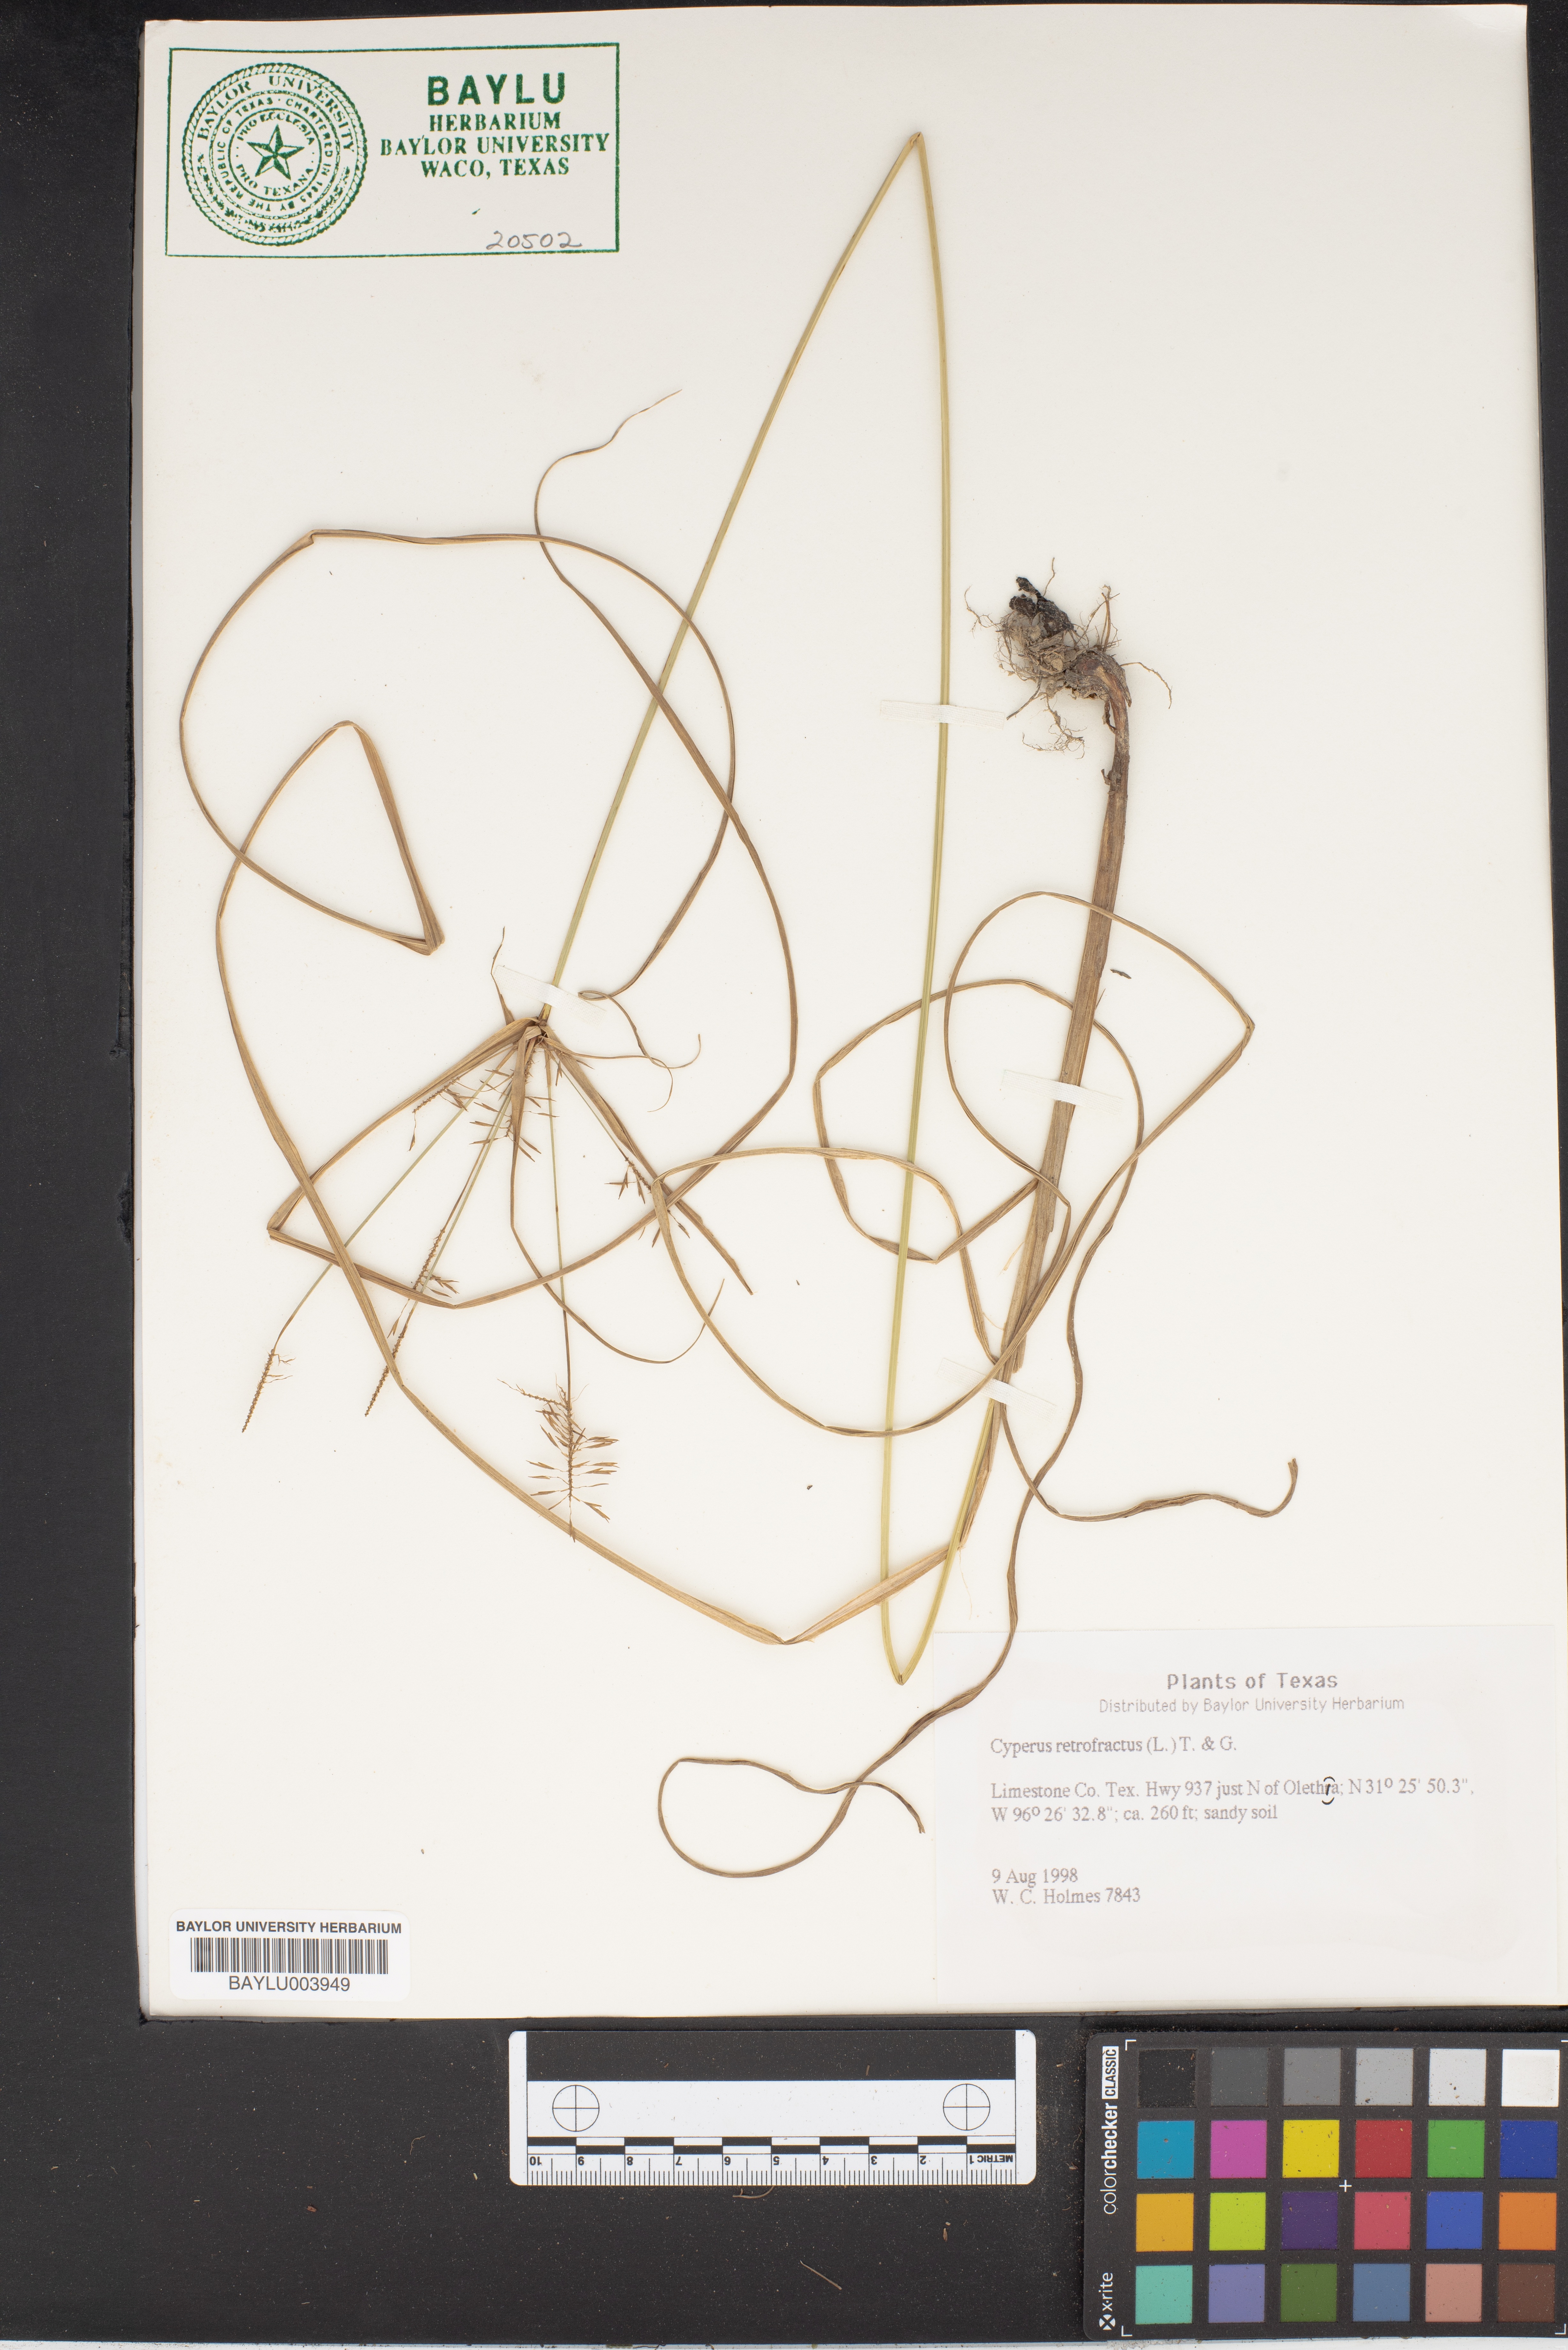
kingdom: Plantae
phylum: Tracheophyta
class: Liliopsida
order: Poales
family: Cyperaceae
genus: Cyperus
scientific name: Cyperus retrofractus
